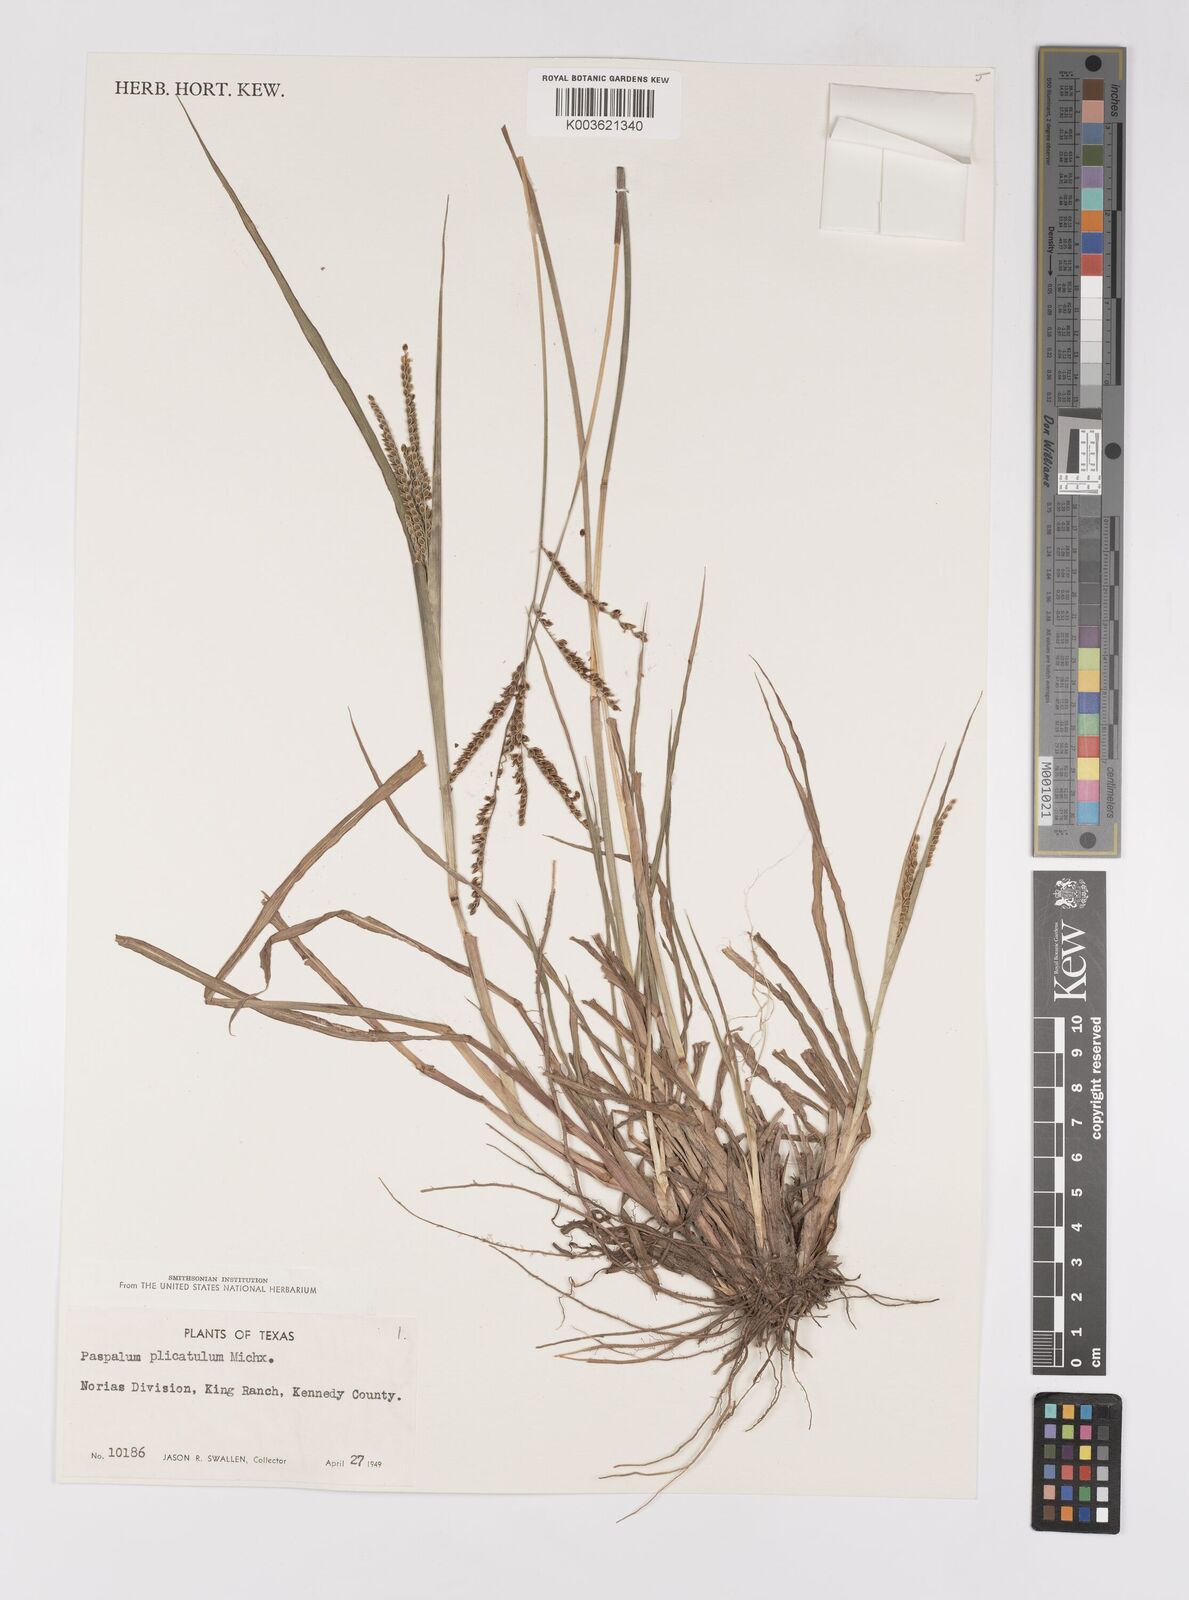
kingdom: Plantae
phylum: Tracheophyta
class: Liliopsida
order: Poales
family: Poaceae
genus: Paspalum
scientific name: Paspalum plicatulum
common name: Top paspalum
